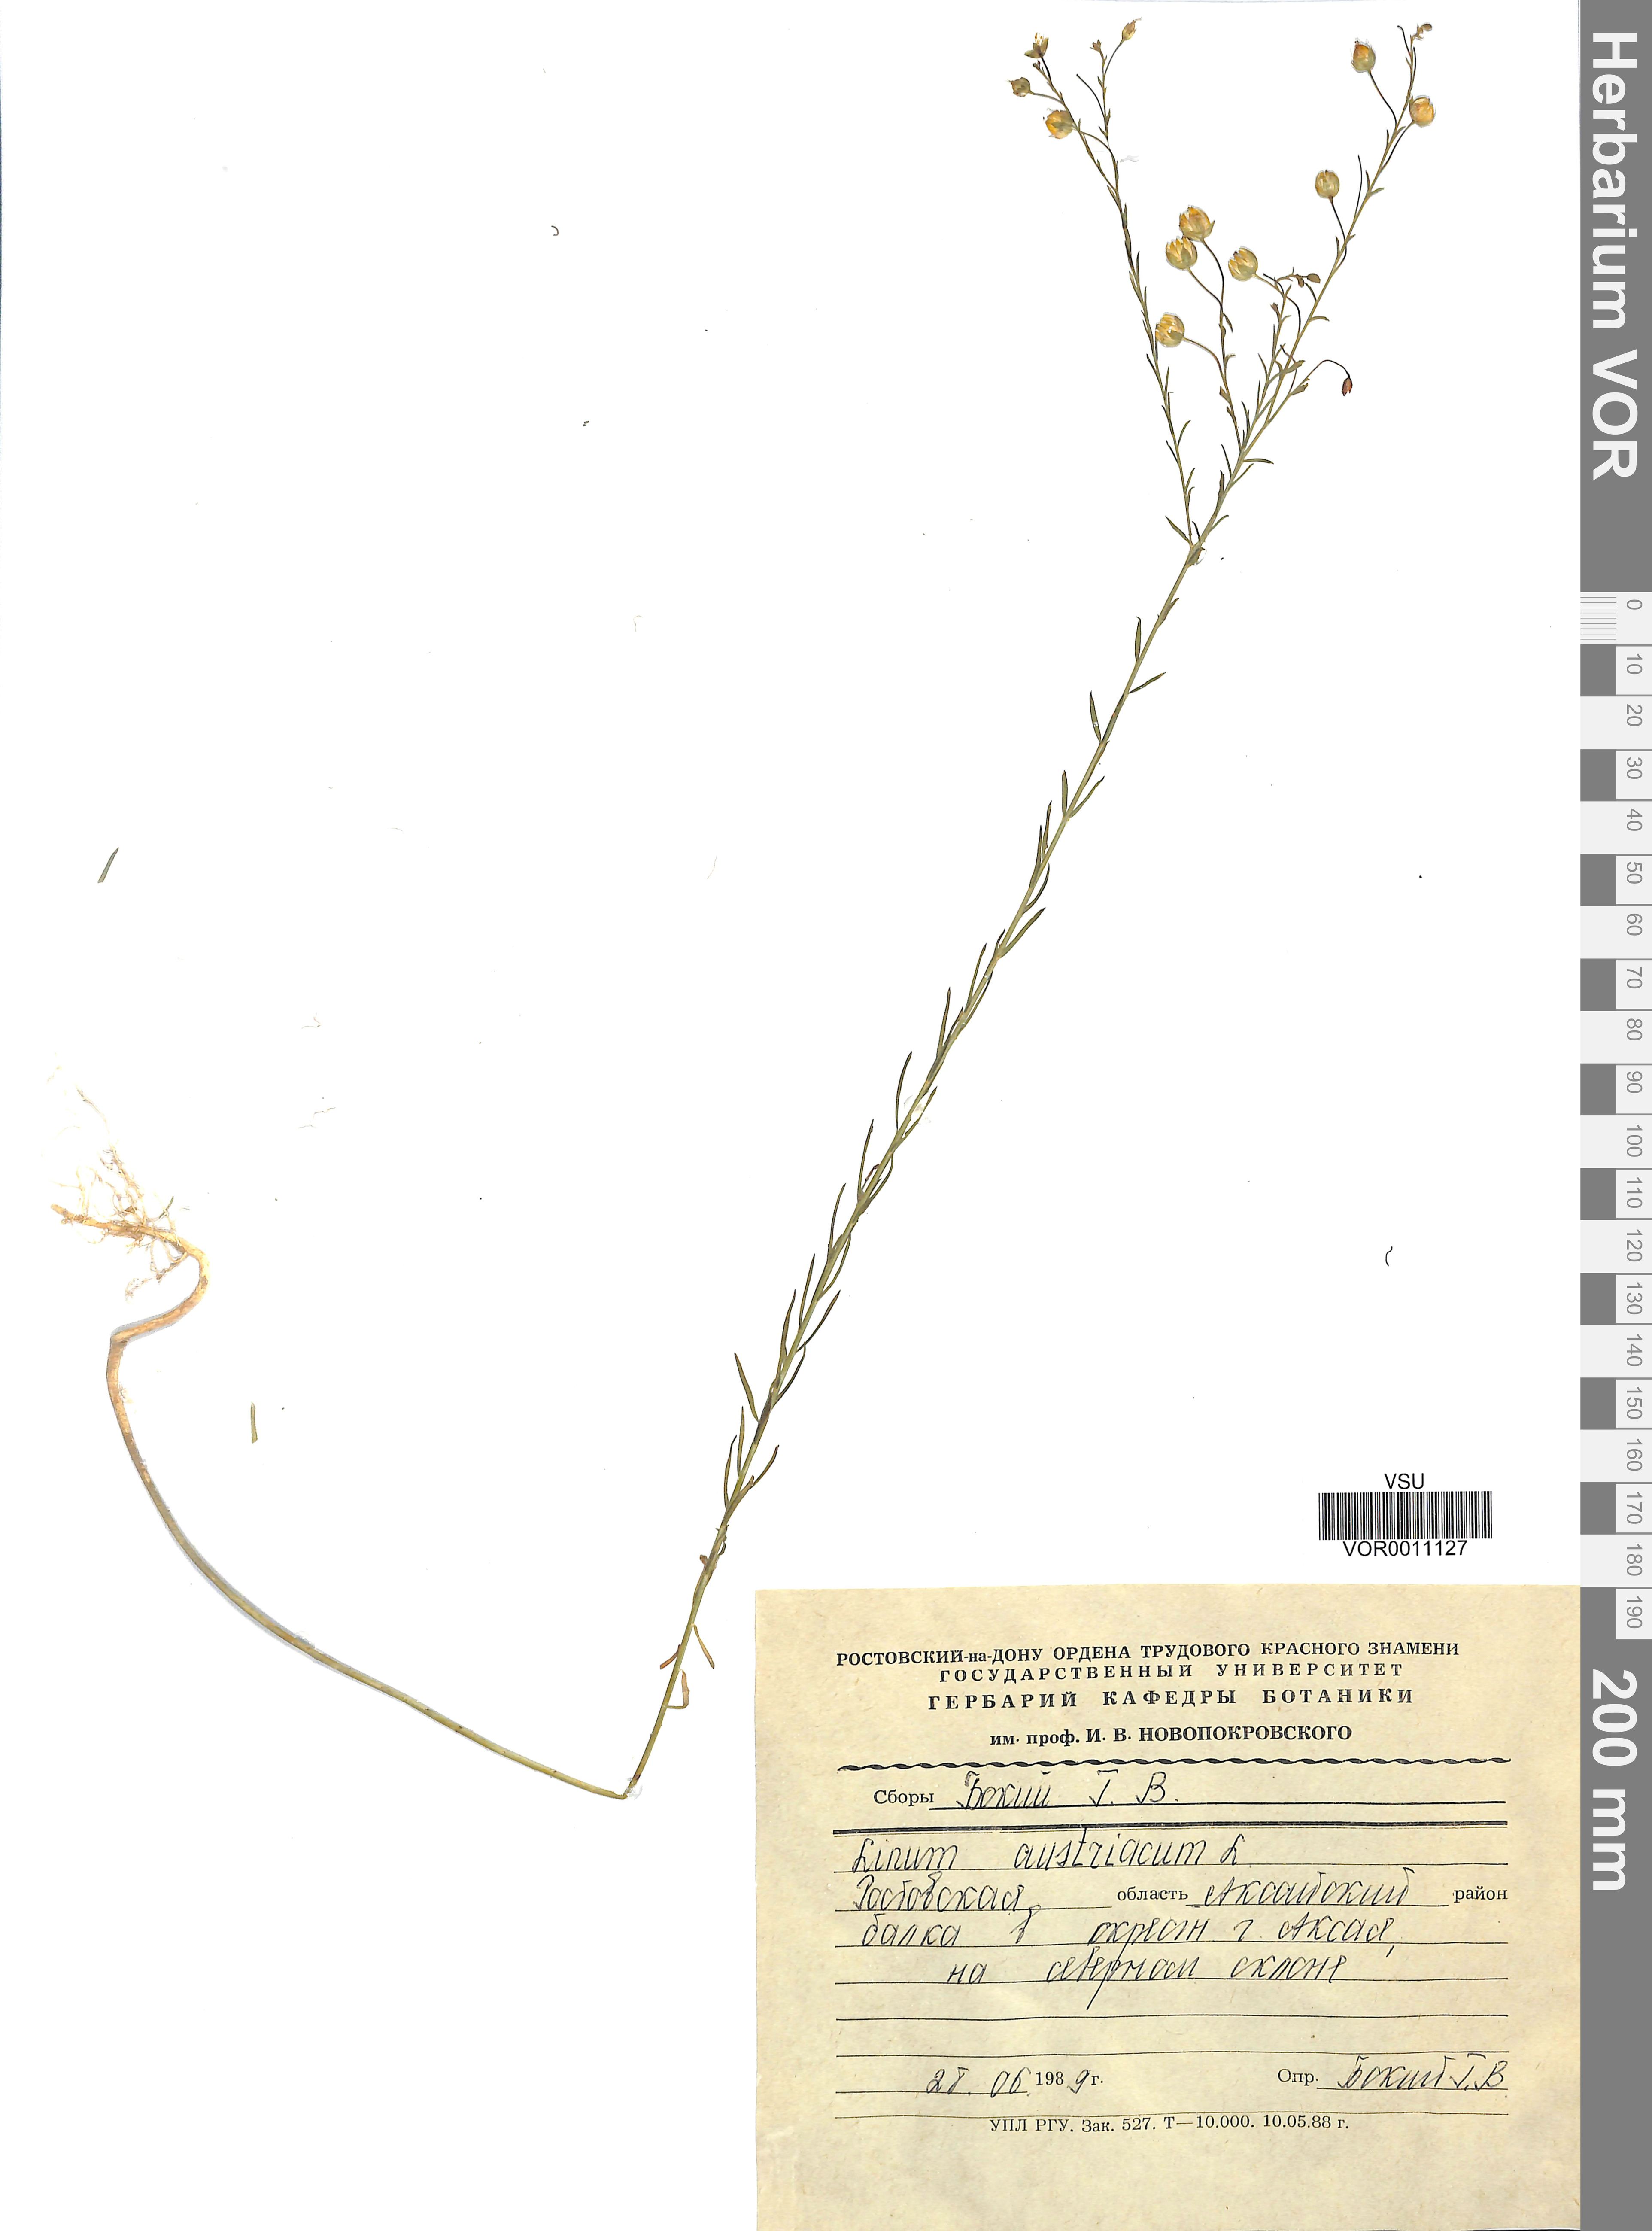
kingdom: Plantae
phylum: Tracheophyta
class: Magnoliopsida
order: Malpighiales
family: Linaceae
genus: Linum
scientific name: Linum austriacum
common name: Austrian flax
